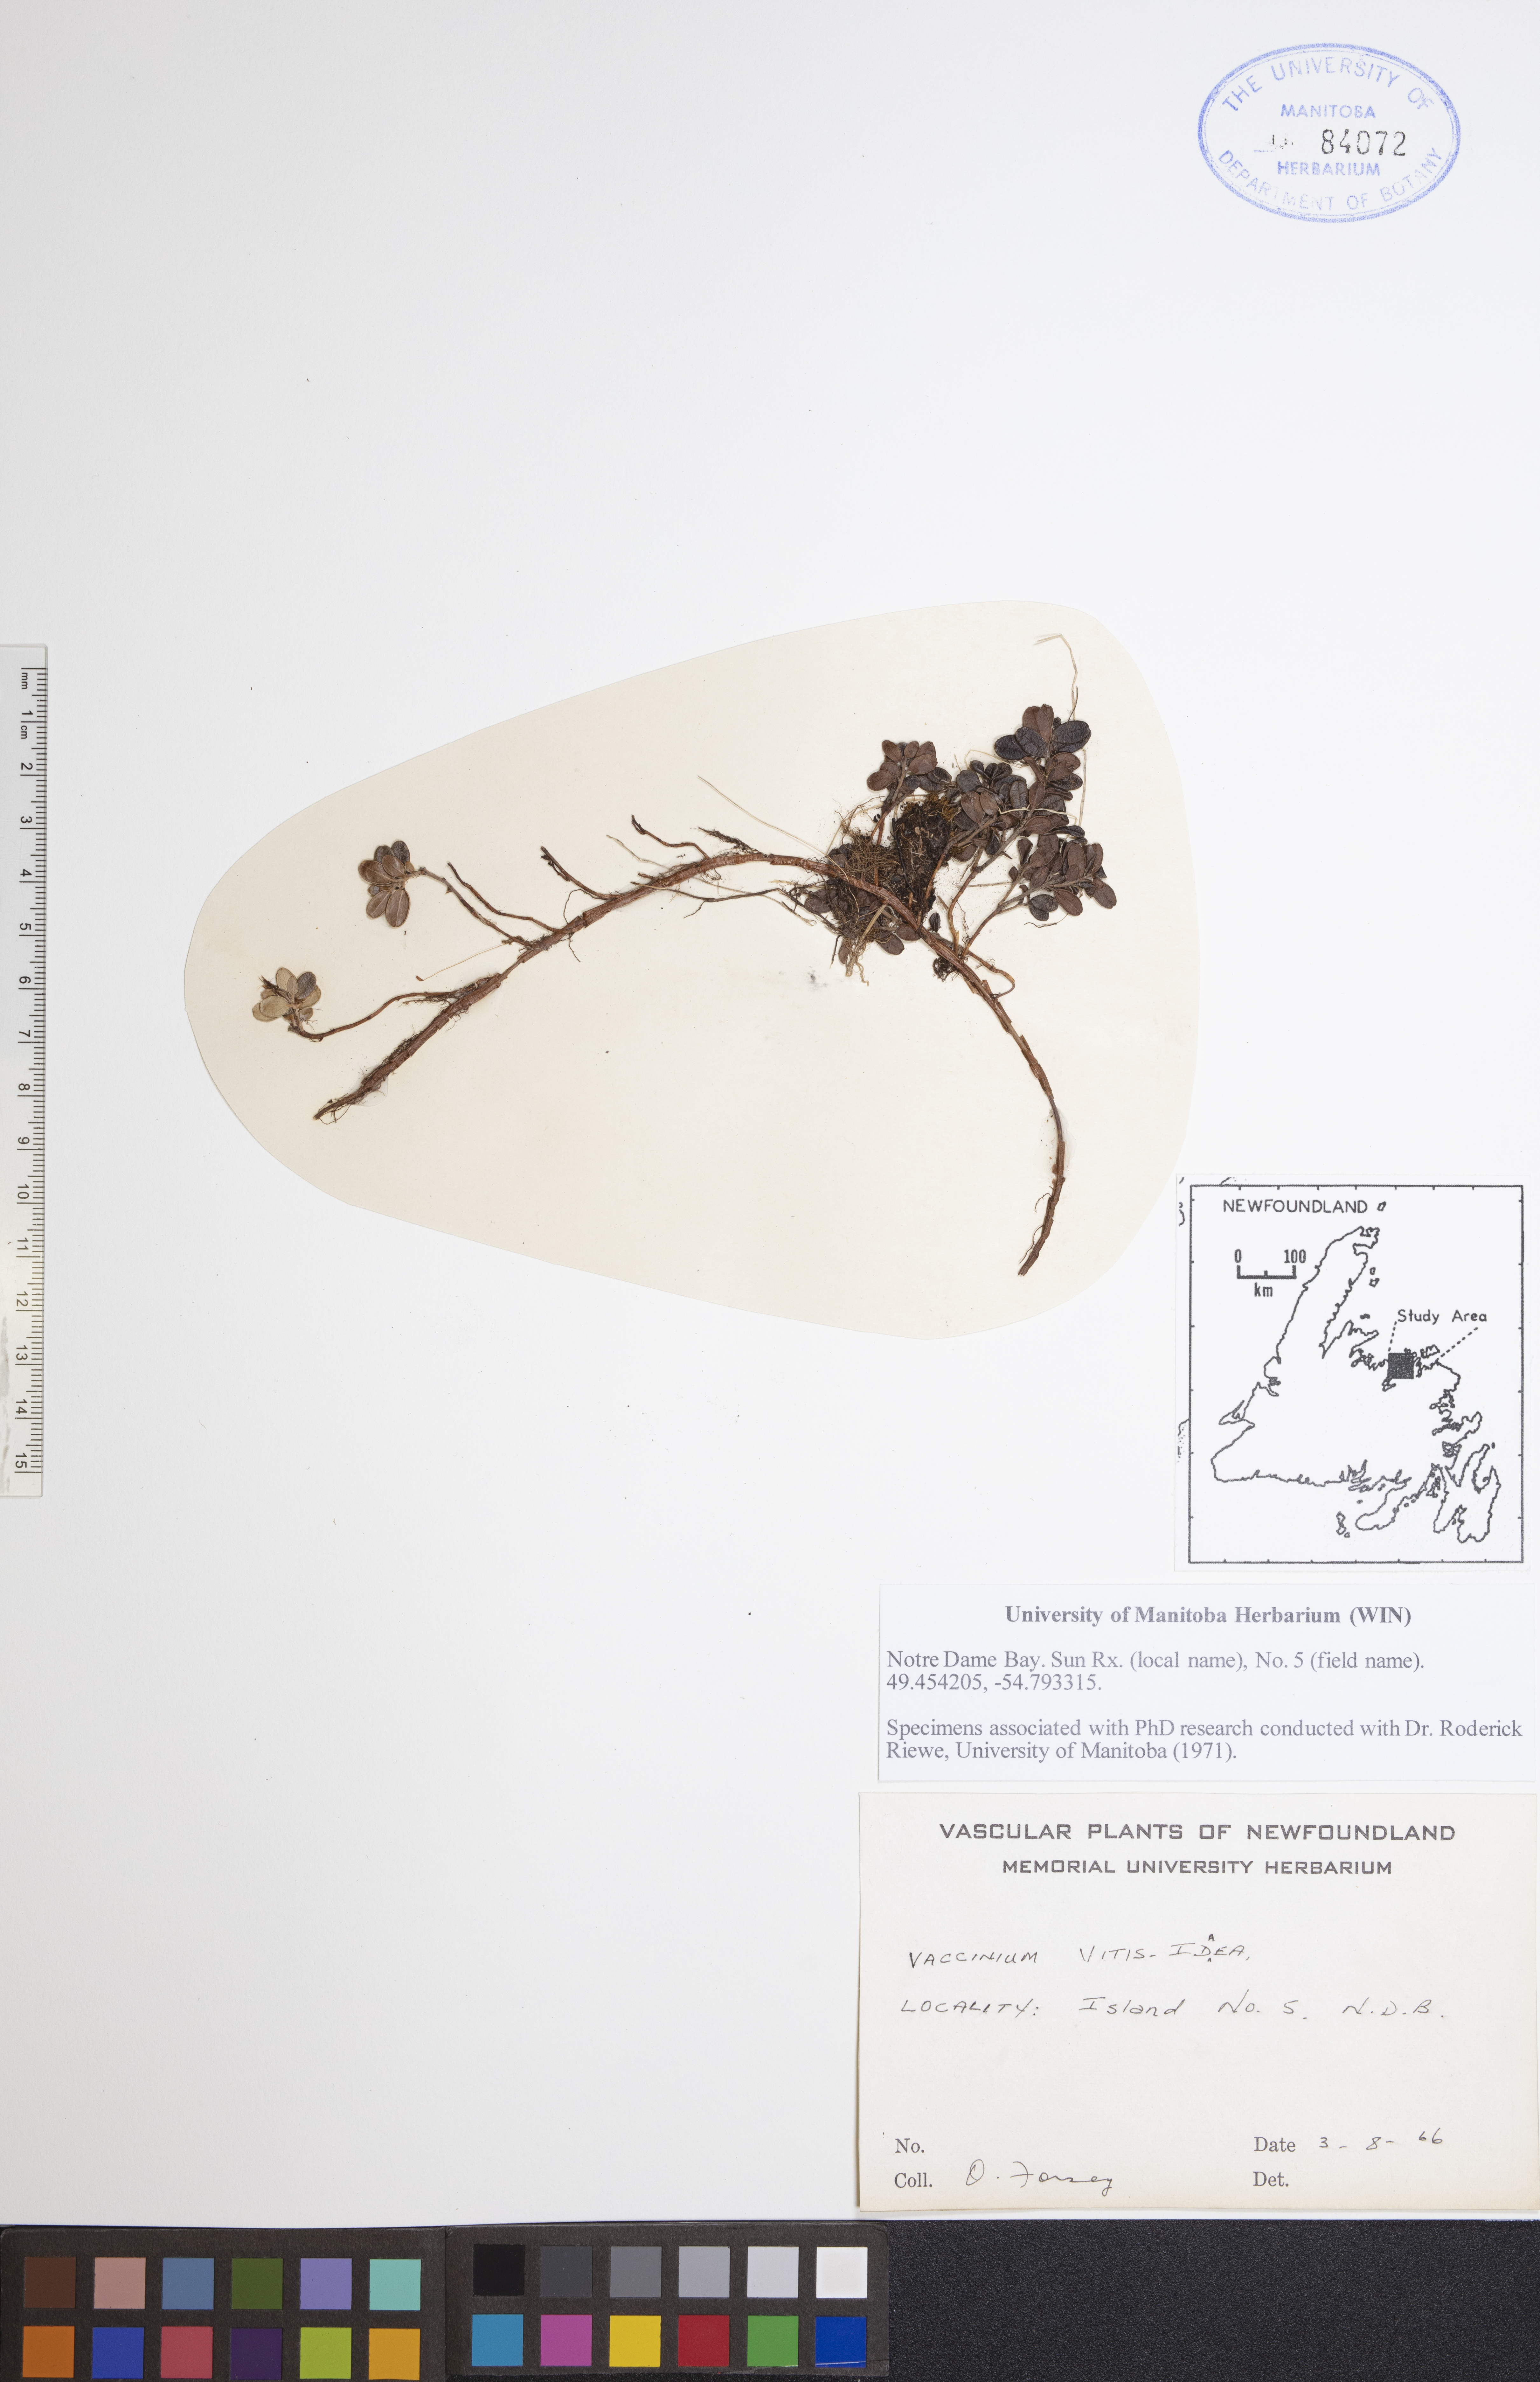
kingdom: Plantae
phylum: Tracheophyta
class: Magnoliopsida
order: Ericales
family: Ericaceae
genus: Vaccinium
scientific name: Vaccinium vitis-idaea
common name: Cowberry
